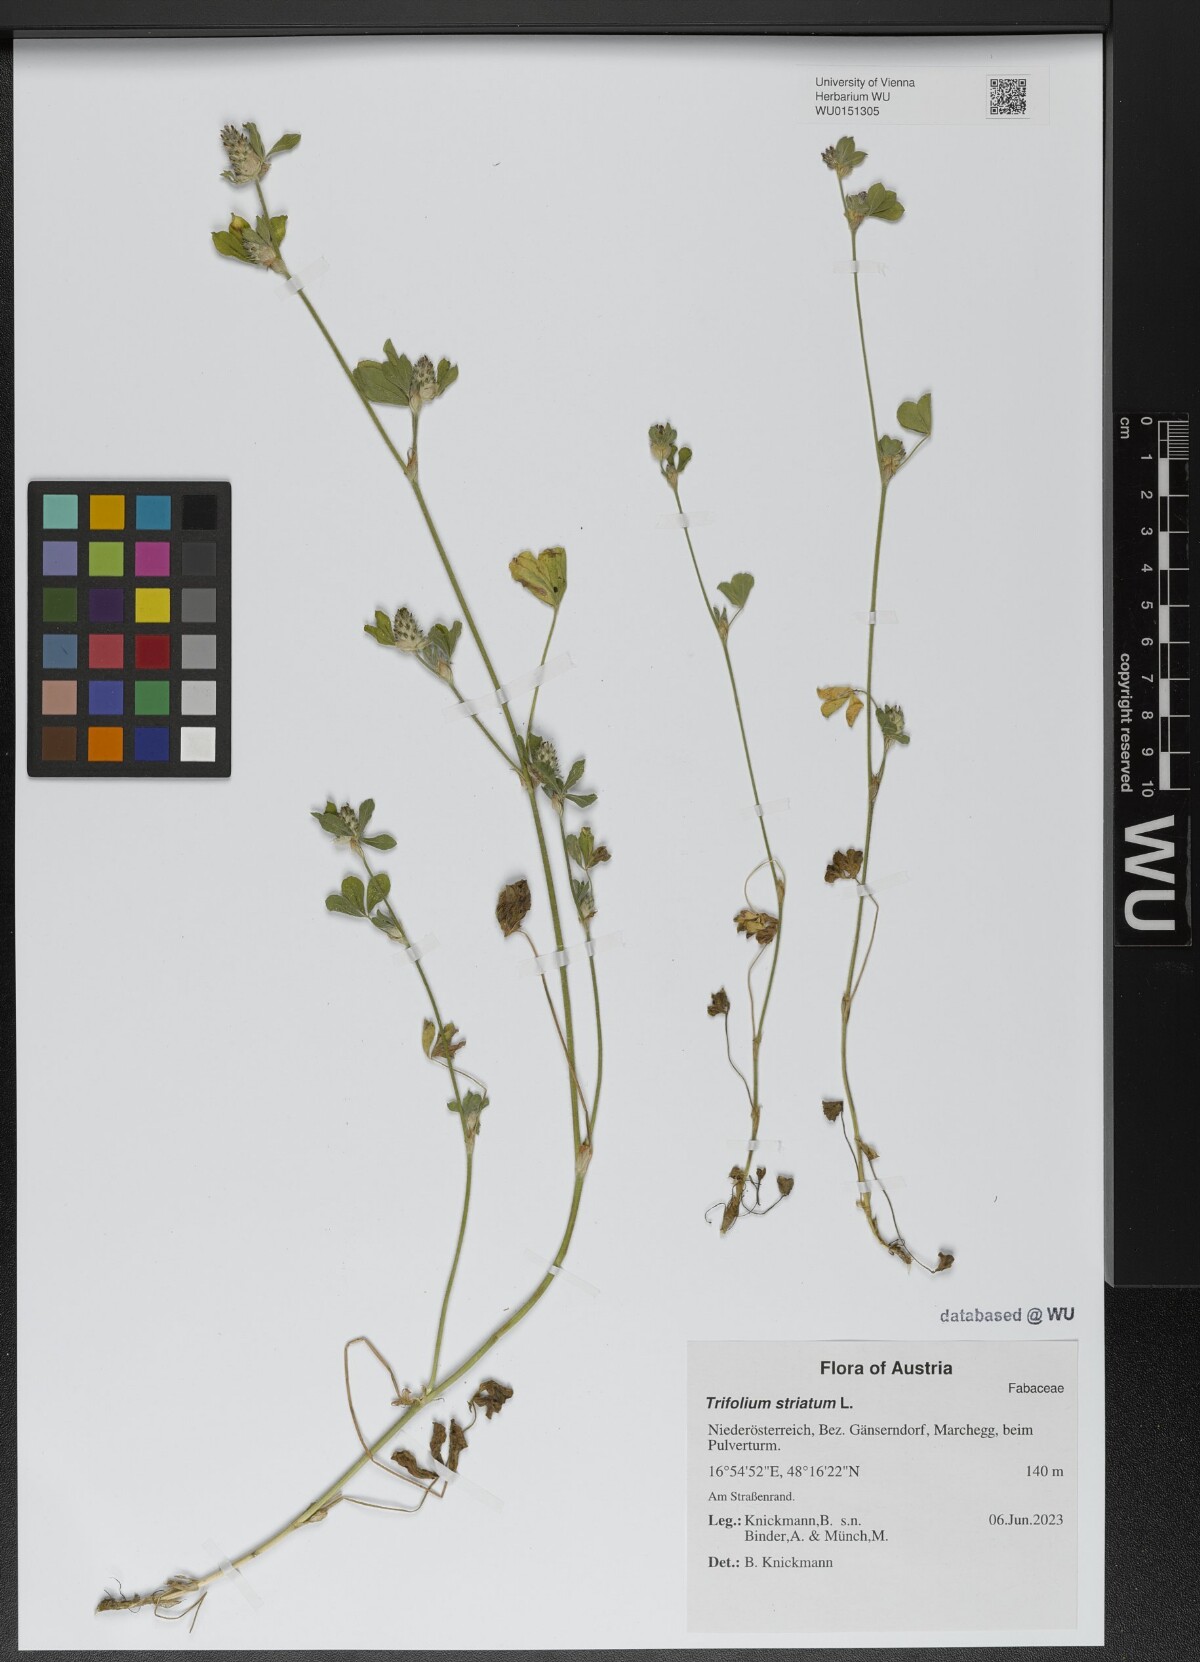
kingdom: Plantae
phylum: Tracheophyta
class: Magnoliopsida
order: Fabales
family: Fabaceae
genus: Trifolium
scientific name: Trifolium striatum
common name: Knotted clover
